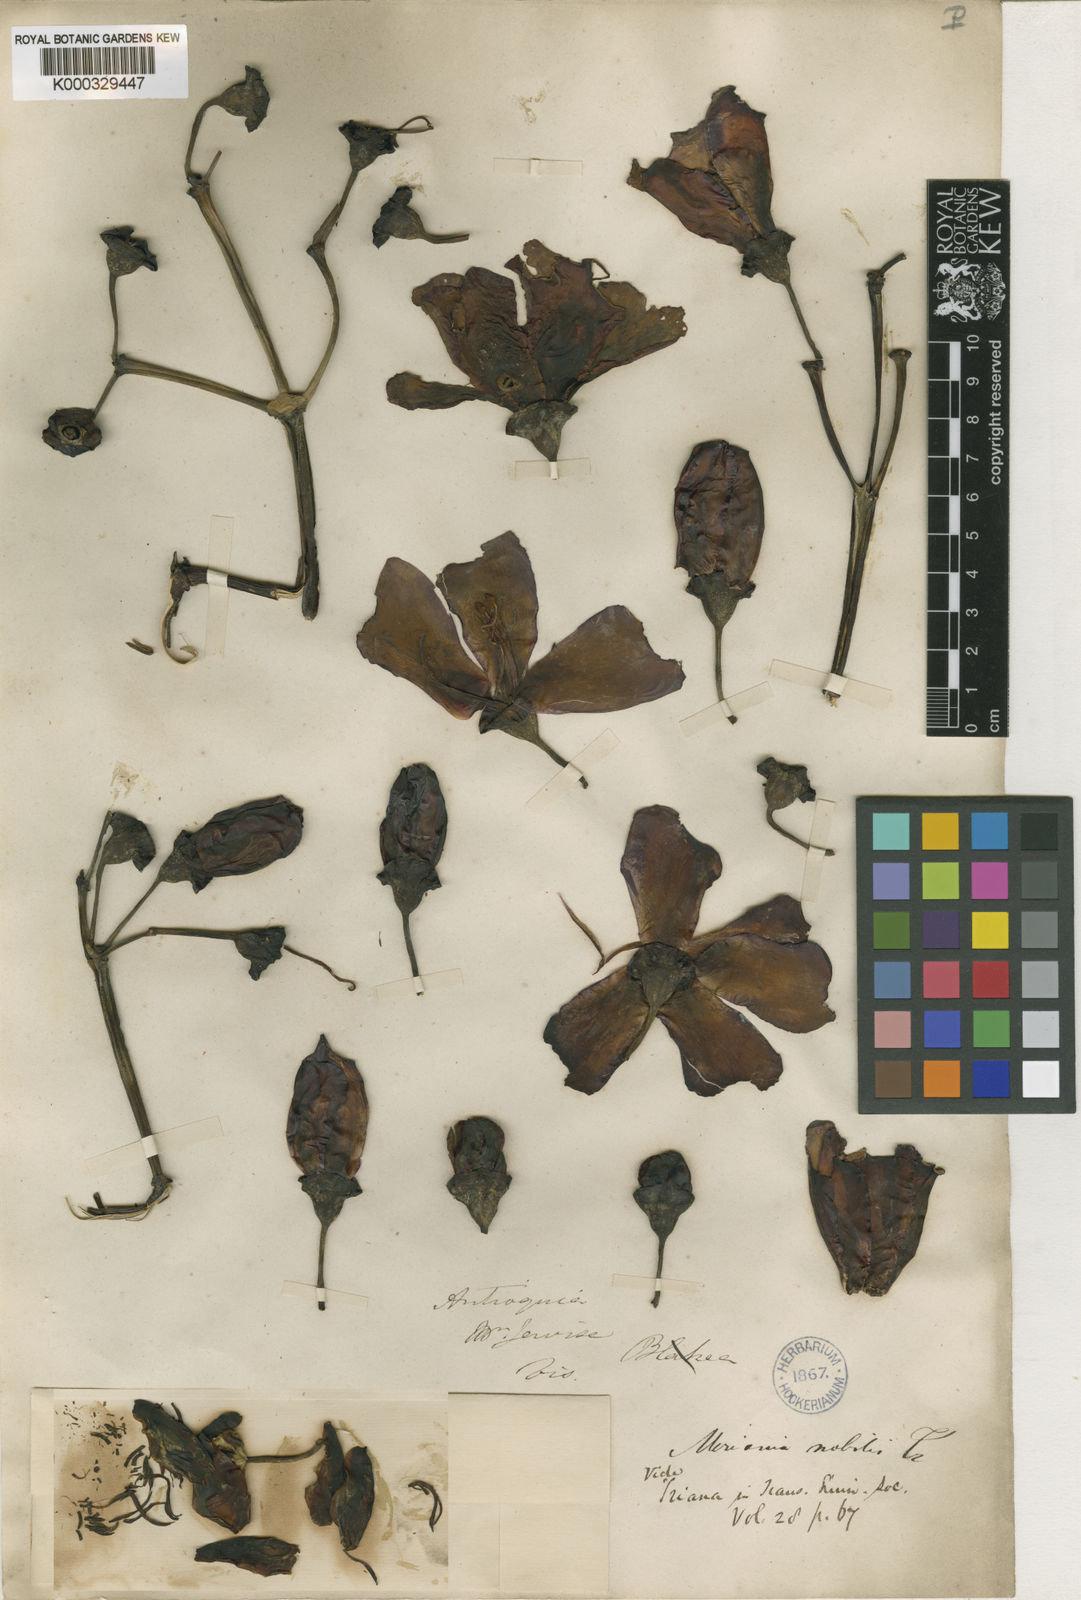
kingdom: Plantae
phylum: Tracheophyta
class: Magnoliopsida
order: Myrtales
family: Melastomataceae
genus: Meriania
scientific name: Meriania nobilis
